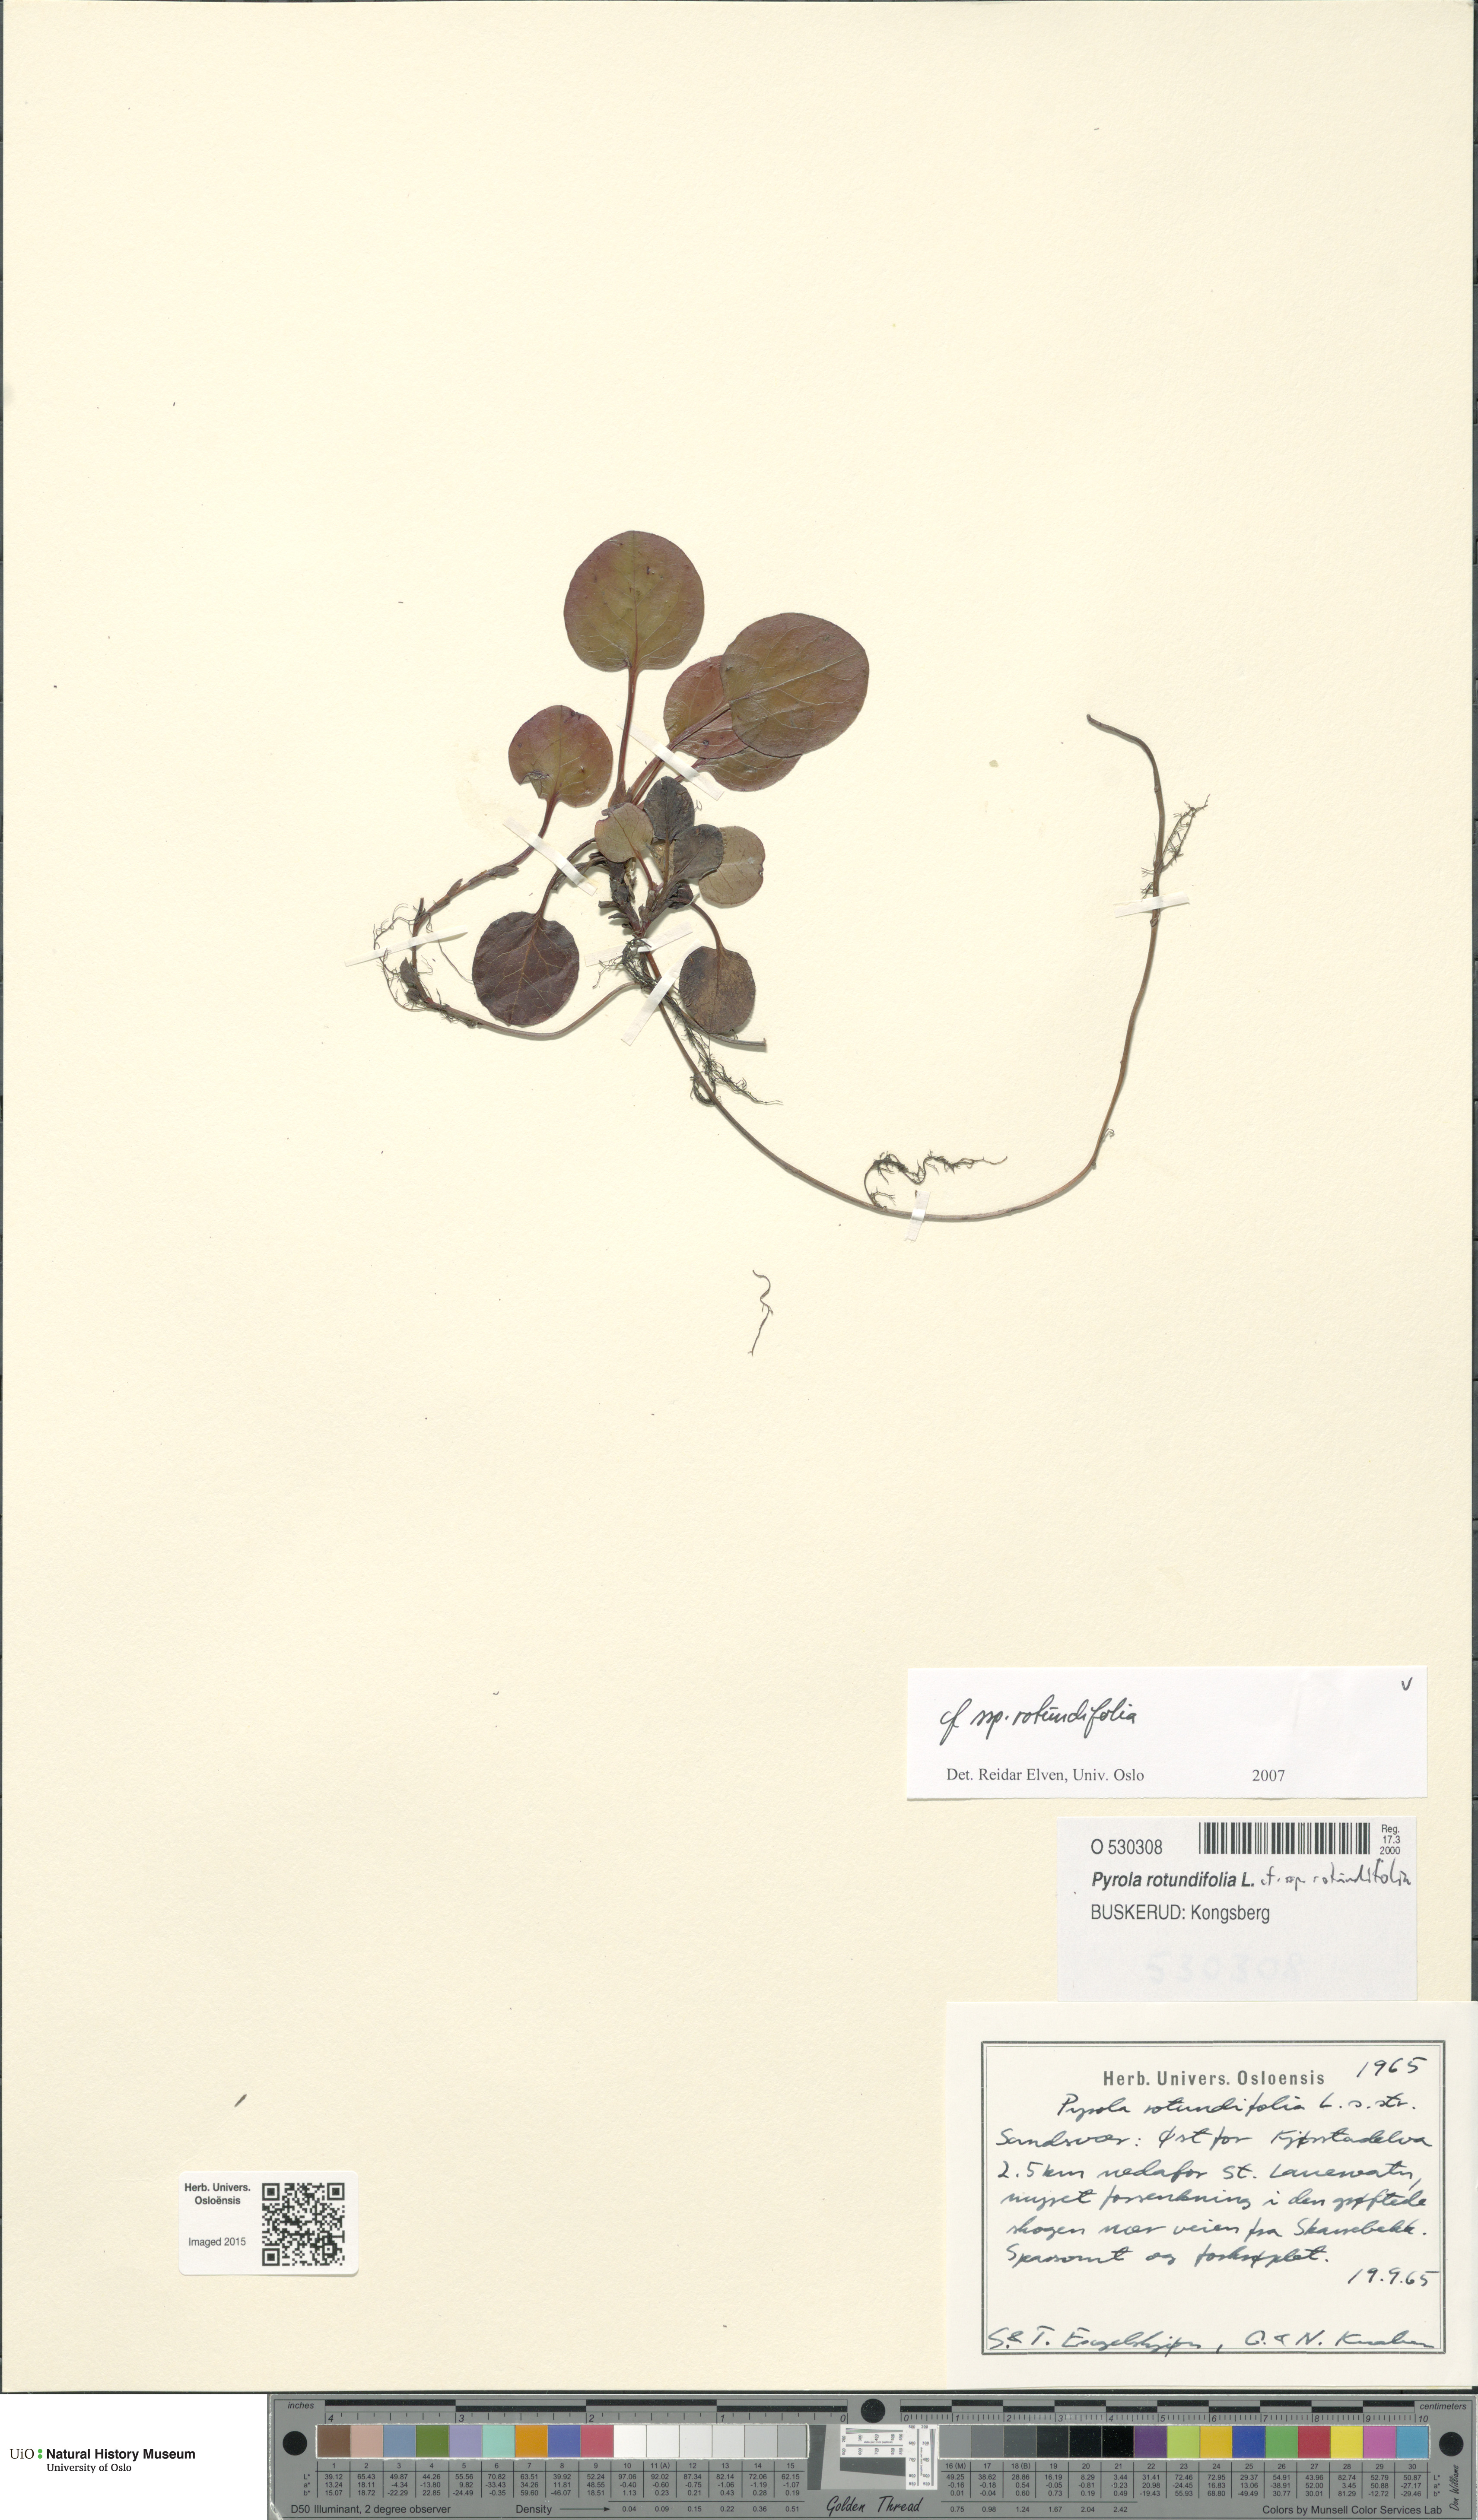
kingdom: Plantae
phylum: Tracheophyta
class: Magnoliopsida
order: Ericales
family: Ericaceae
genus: Pyrola
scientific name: Pyrola rotundifolia
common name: Round-leaved wintergreen
